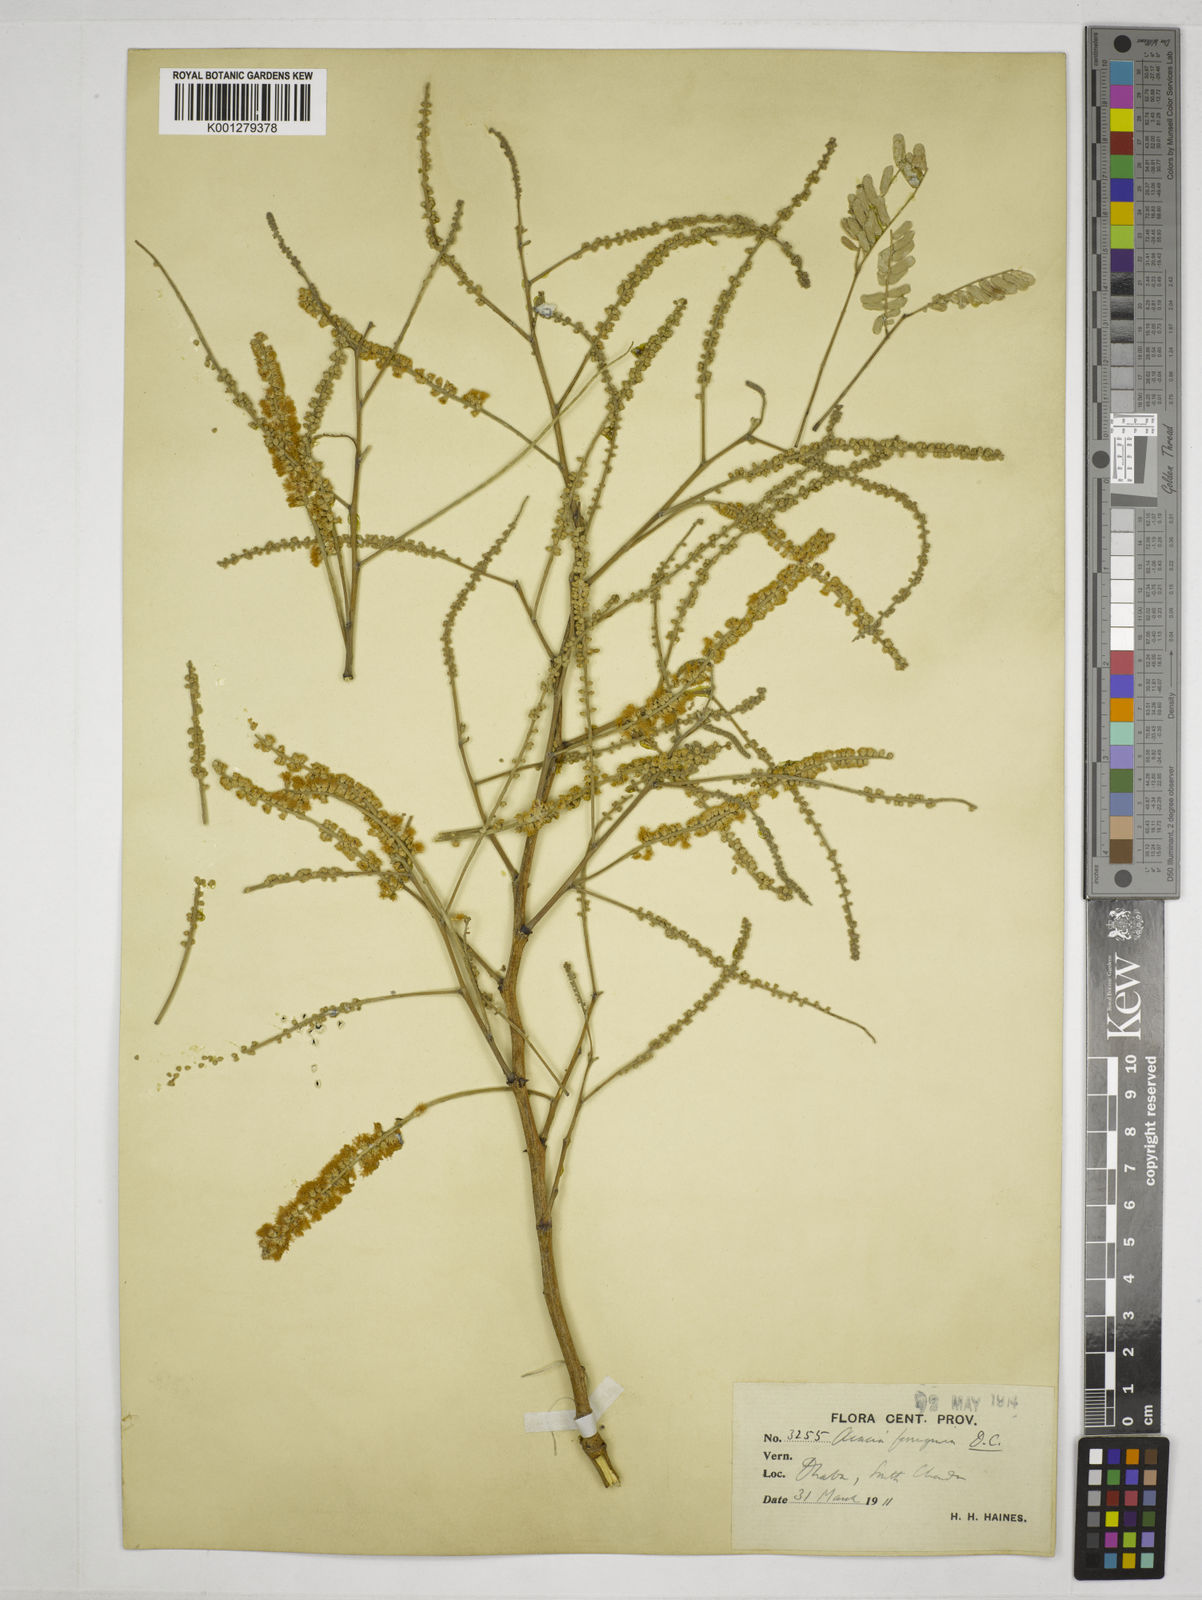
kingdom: Plantae
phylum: Tracheophyta
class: Magnoliopsida
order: Fabales
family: Fabaceae
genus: Senegalia
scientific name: Senegalia ferruginea
